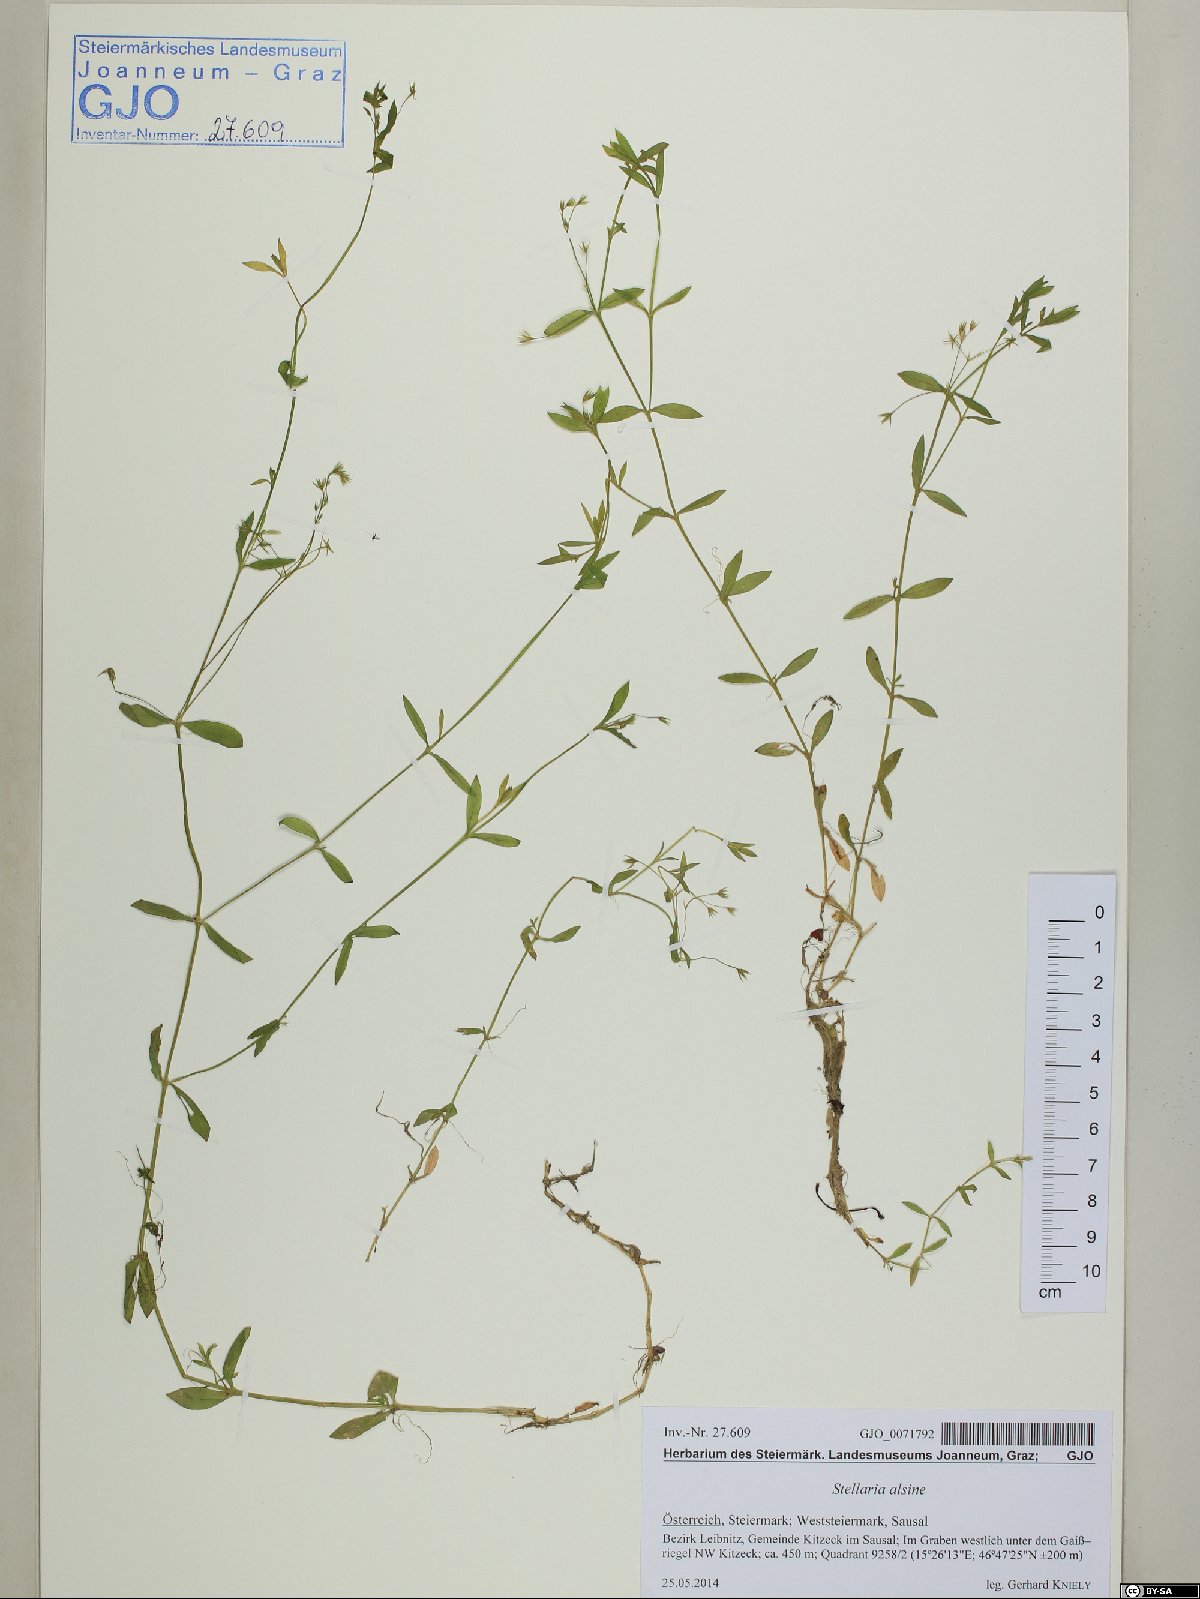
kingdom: Plantae
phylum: Tracheophyta
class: Magnoliopsida
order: Caryophyllales
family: Caryophyllaceae
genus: Stellaria
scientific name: Stellaria alsine
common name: Bog stitchwort
